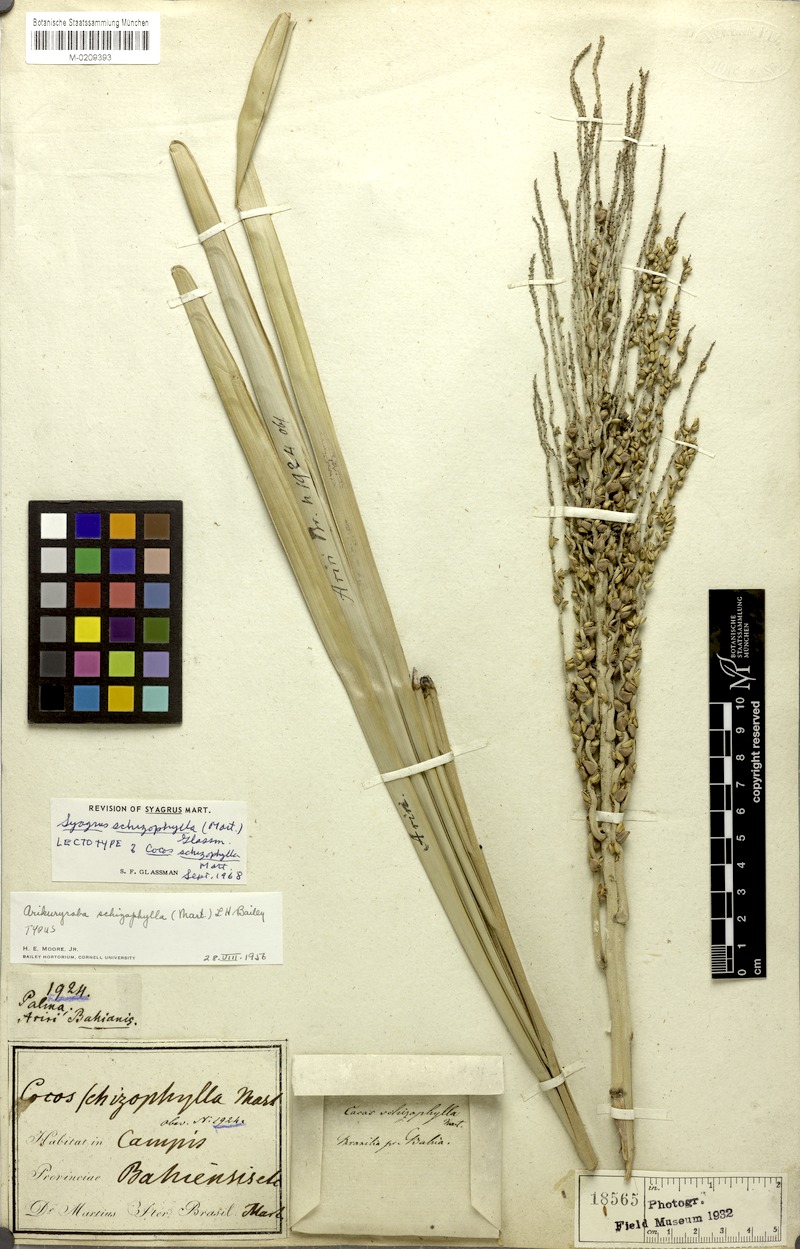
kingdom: Plantae
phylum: Tracheophyta
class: Liliopsida
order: Arecales
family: Arecaceae
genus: Syagrus
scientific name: Syagrus schizophylla
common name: Arikury palm
